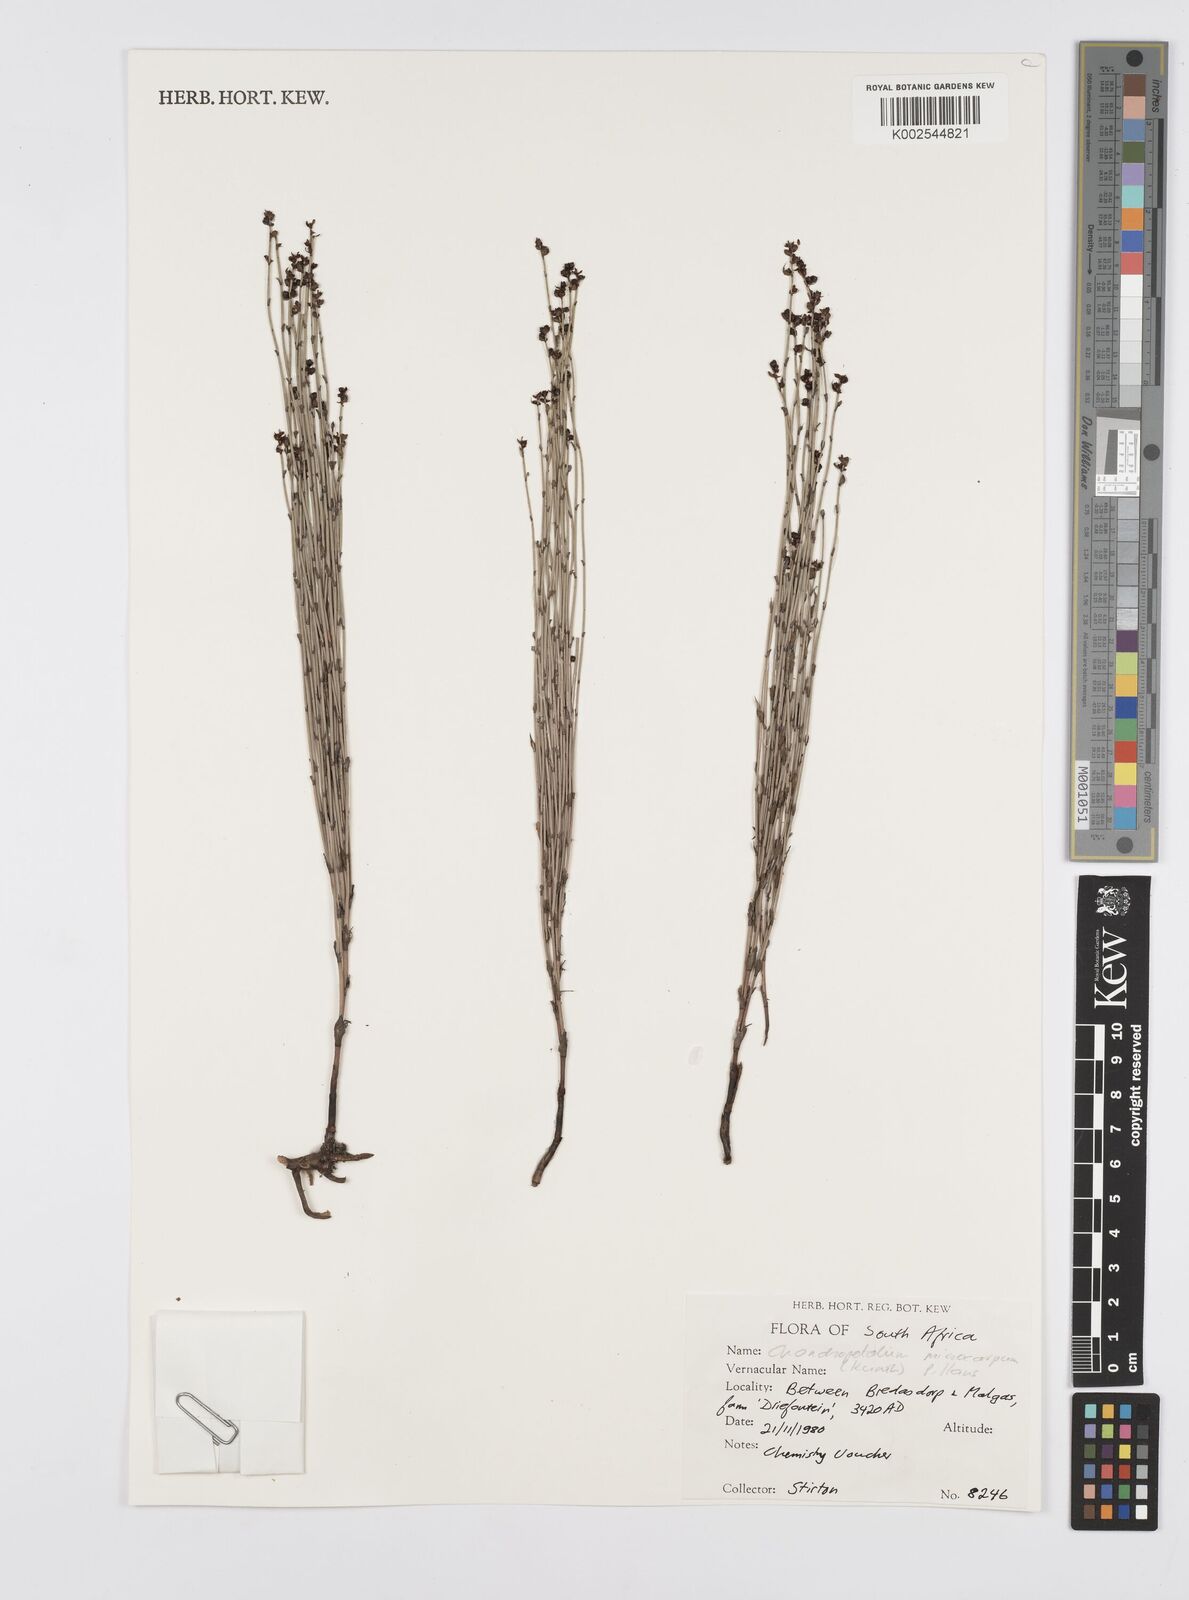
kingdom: Plantae
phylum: Tracheophyta
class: Liliopsida
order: Poales
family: Restionaceae
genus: Elegia
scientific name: Elegia microcarpa
